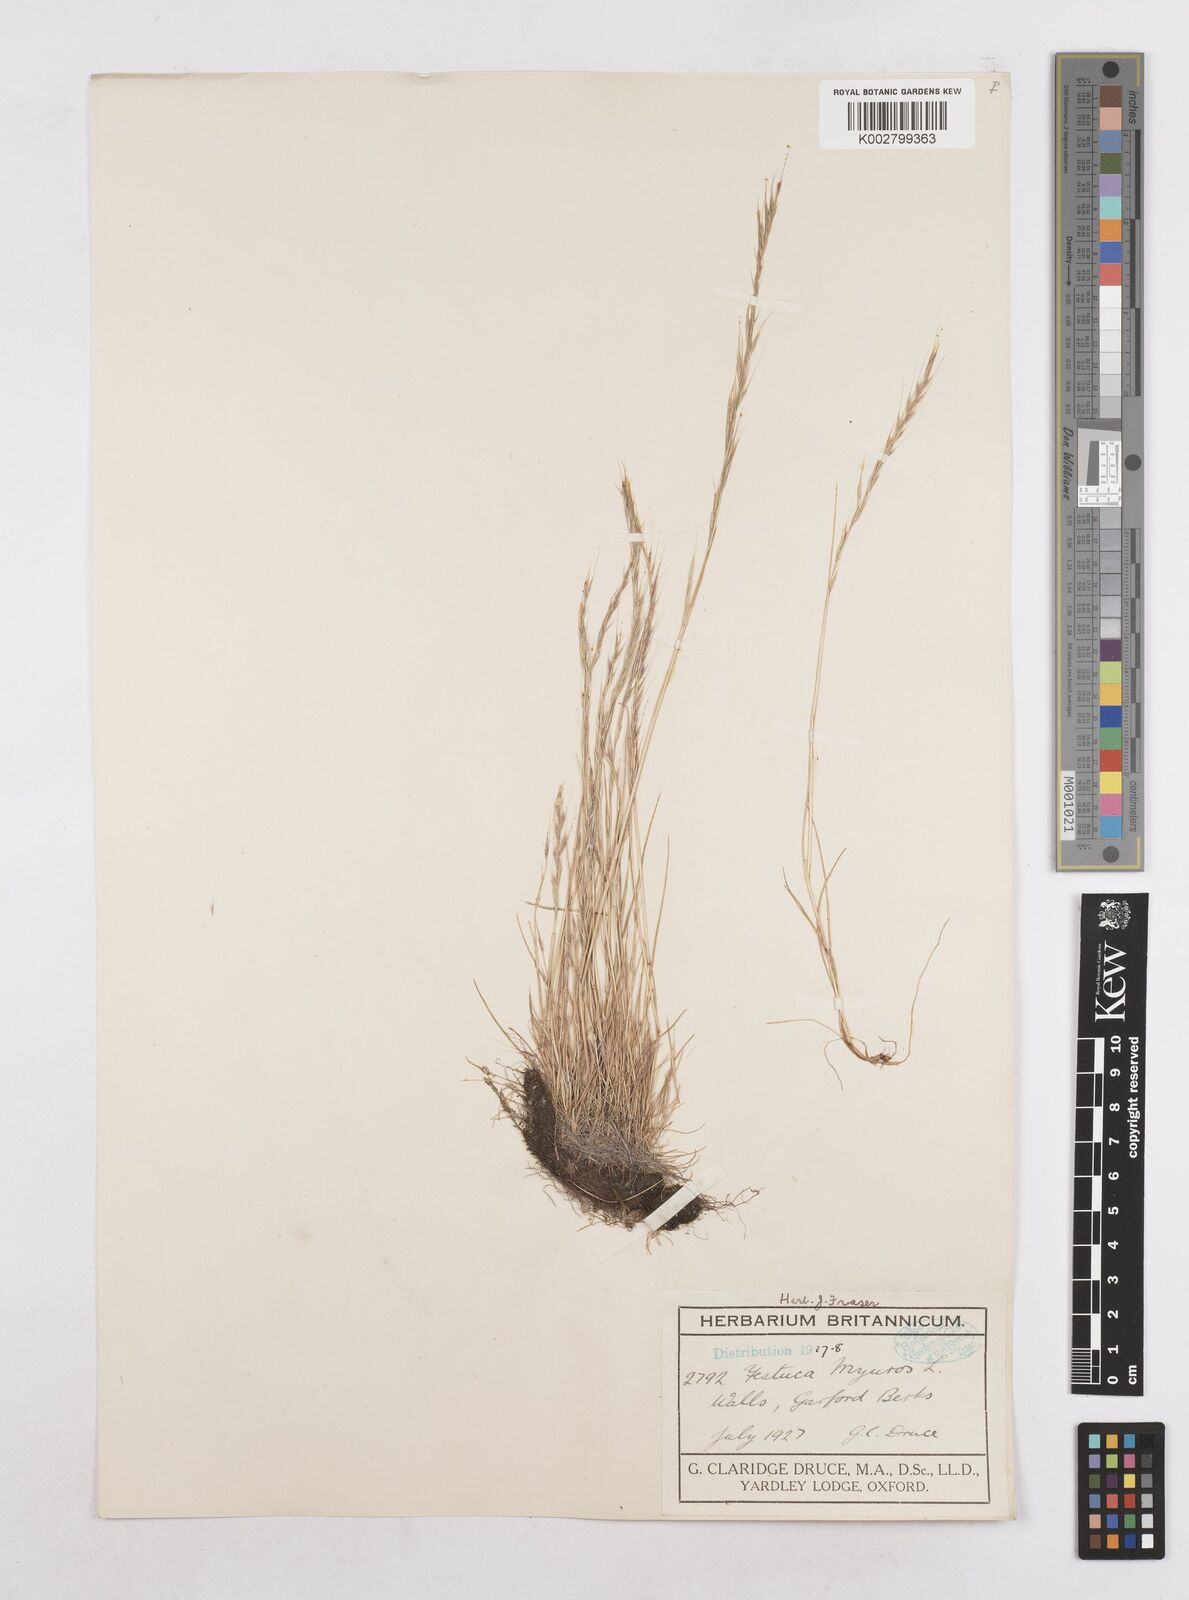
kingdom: Plantae
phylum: Tracheophyta
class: Liliopsida
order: Poales
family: Poaceae
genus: Festuca
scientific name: Festuca myuros
